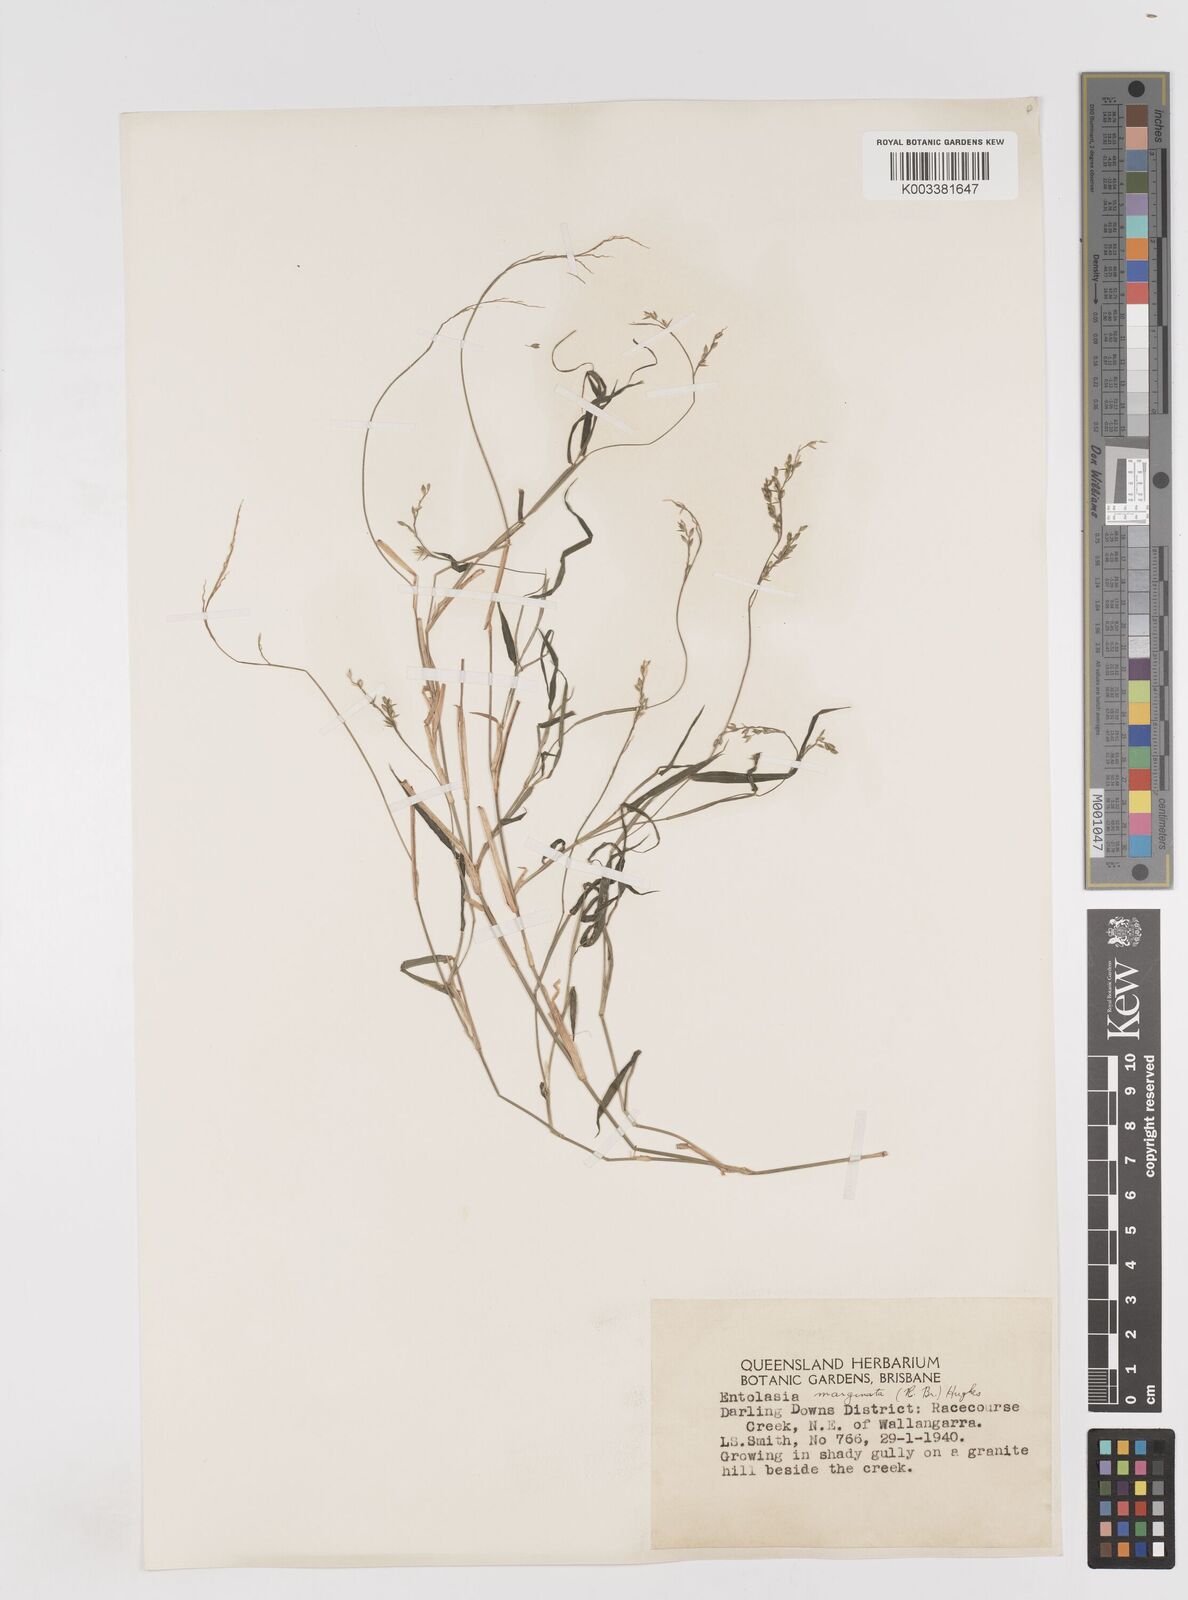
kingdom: Plantae
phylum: Tracheophyta
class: Liliopsida
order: Poales
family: Poaceae
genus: Entolasia
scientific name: Entolasia marginata
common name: Australian panicgrass
